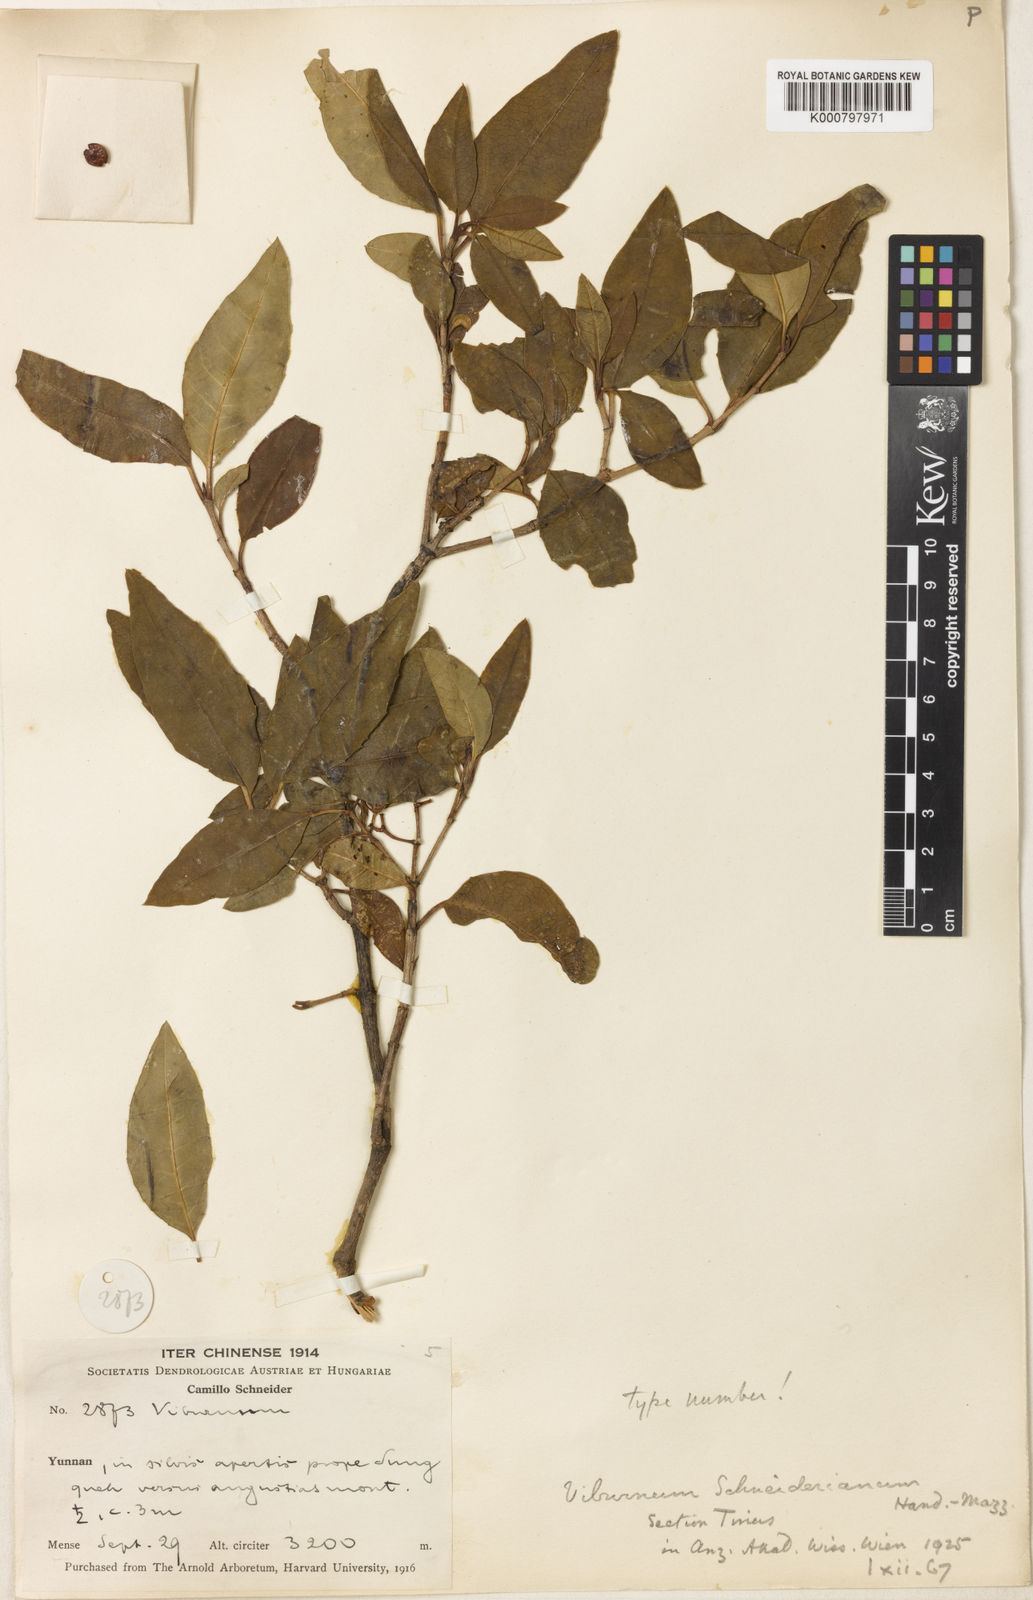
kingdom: Plantae
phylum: Tracheophyta
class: Magnoliopsida
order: Dipsacales
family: Viburnaceae
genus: Viburnum
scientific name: Viburnum atrocyaneum
